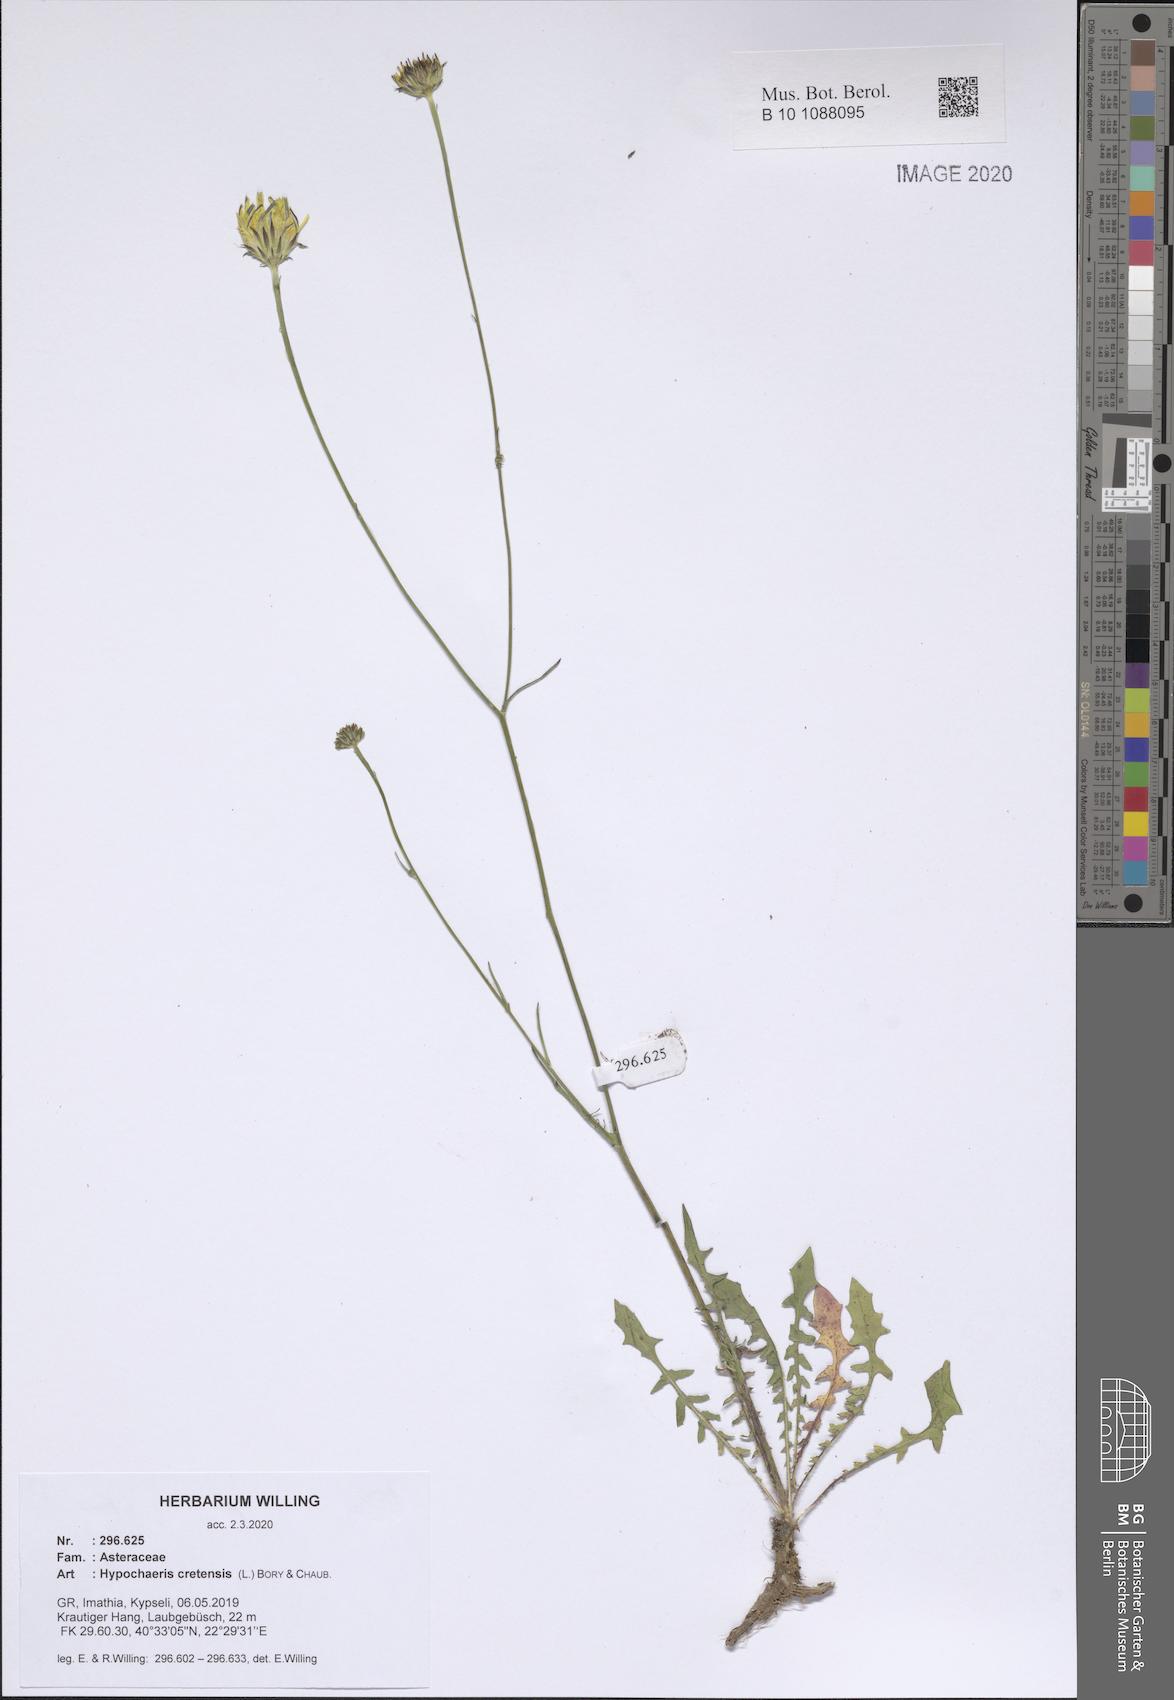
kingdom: Plantae
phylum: Tracheophyta
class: Magnoliopsida
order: Asterales
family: Asteraceae
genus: Hypochaeris
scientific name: Hypochaeris cretensis
